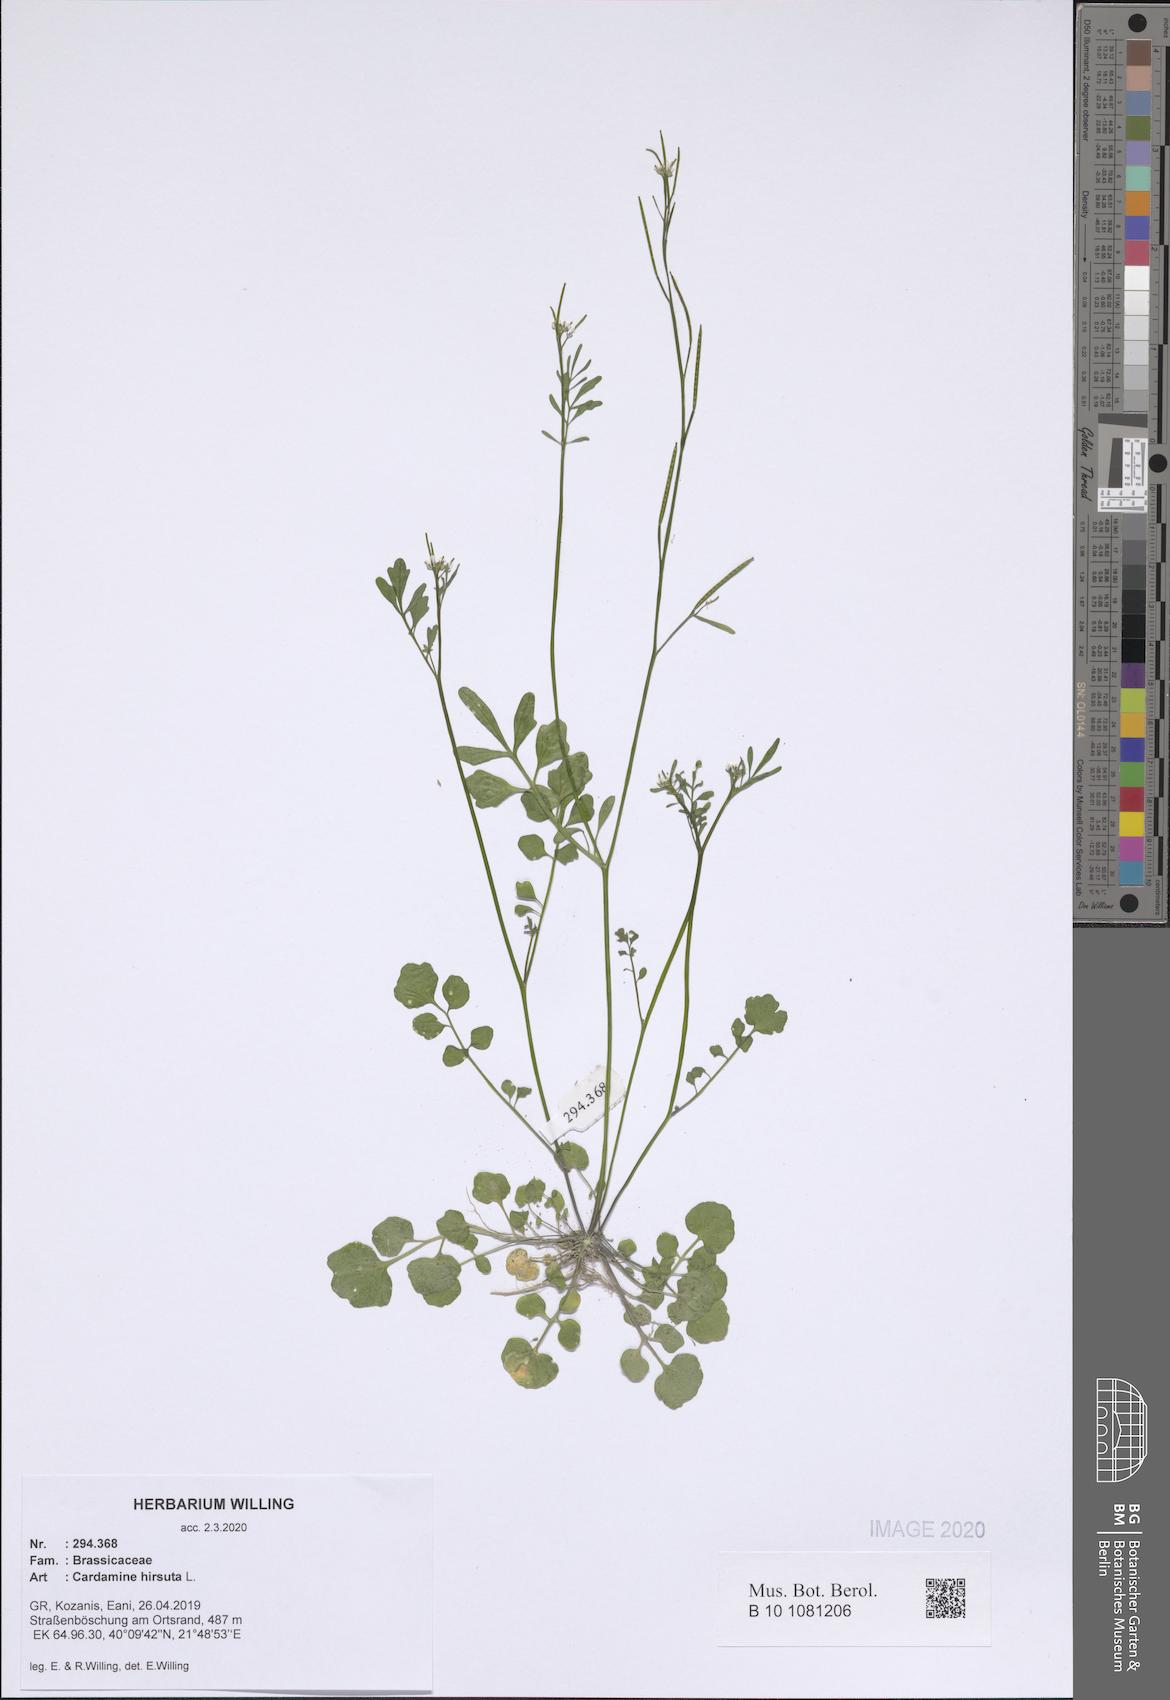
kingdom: Plantae
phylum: Tracheophyta
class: Magnoliopsida
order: Brassicales
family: Brassicaceae
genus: Cardamine
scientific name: Cardamine hirsuta
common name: Hairy bittercress
